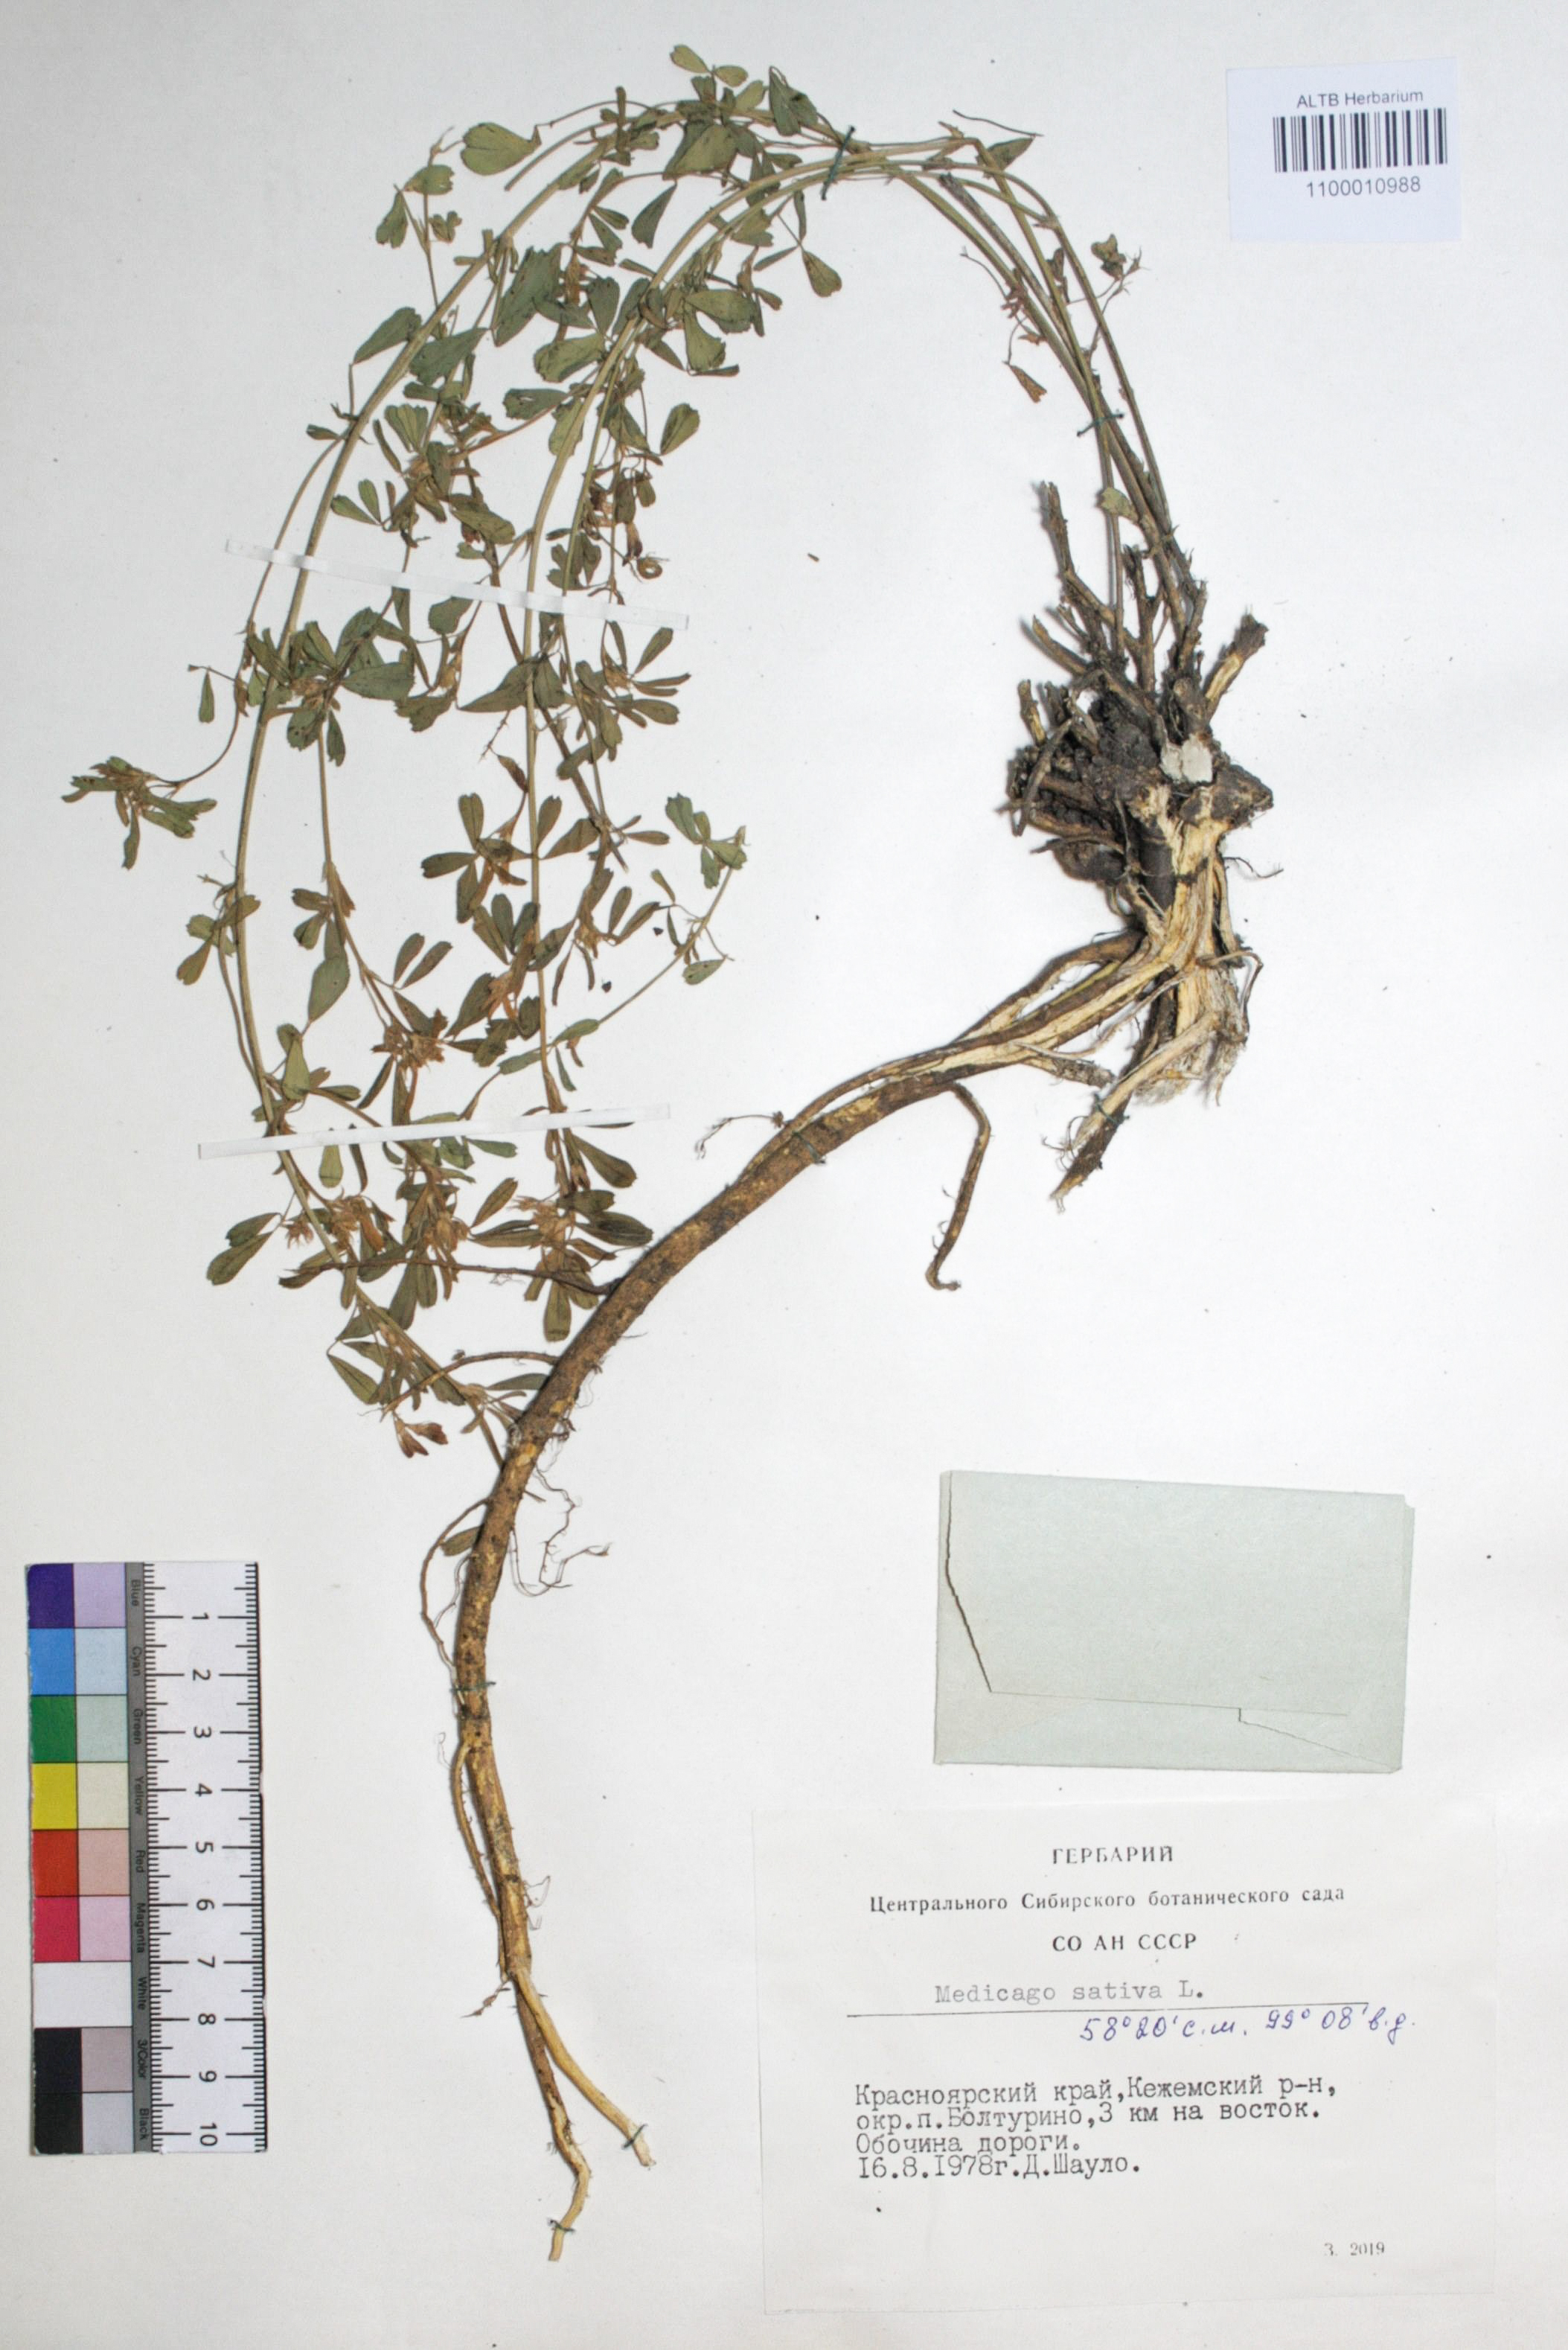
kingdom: Plantae
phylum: Tracheophyta
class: Magnoliopsida
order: Fabales
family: Fabaceae
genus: Medicago
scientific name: Medicago sativa
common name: Alfalfa
